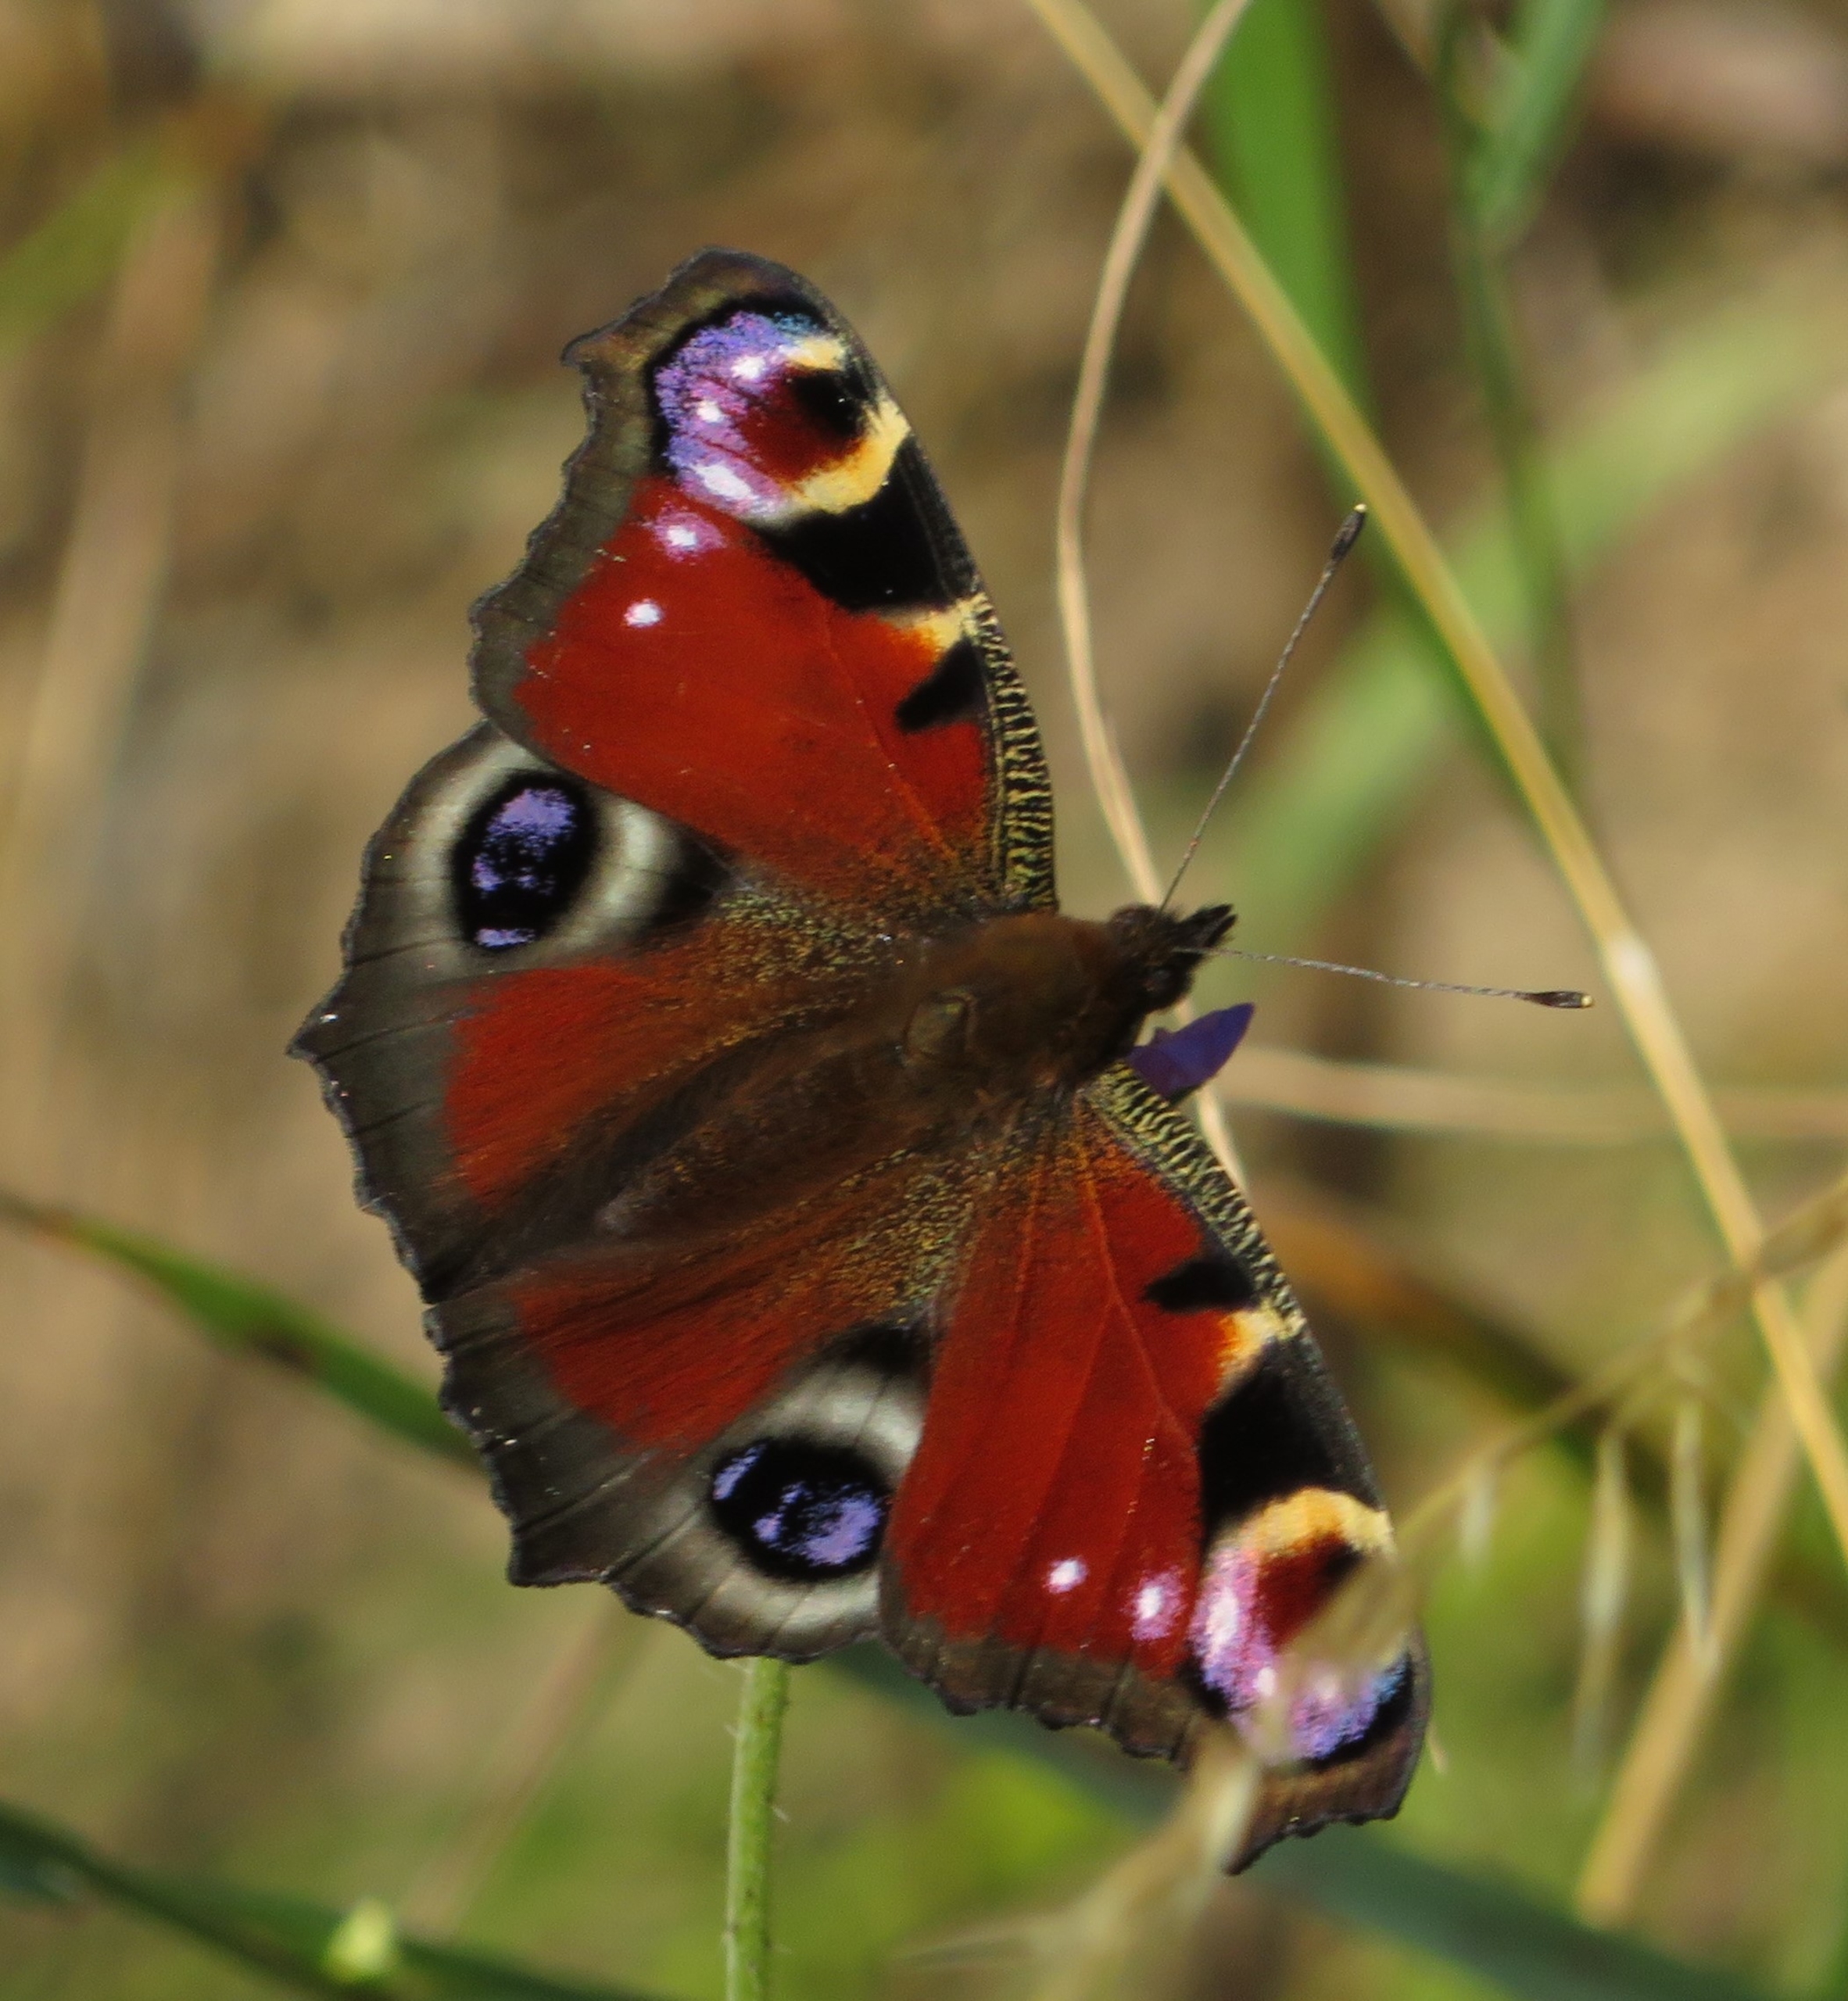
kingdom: Animalia
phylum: Arthropoda
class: Insecta
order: Lepidoptera
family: Nymphalidae
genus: Aglais
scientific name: Aglais io
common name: Dagpåfugleøje
